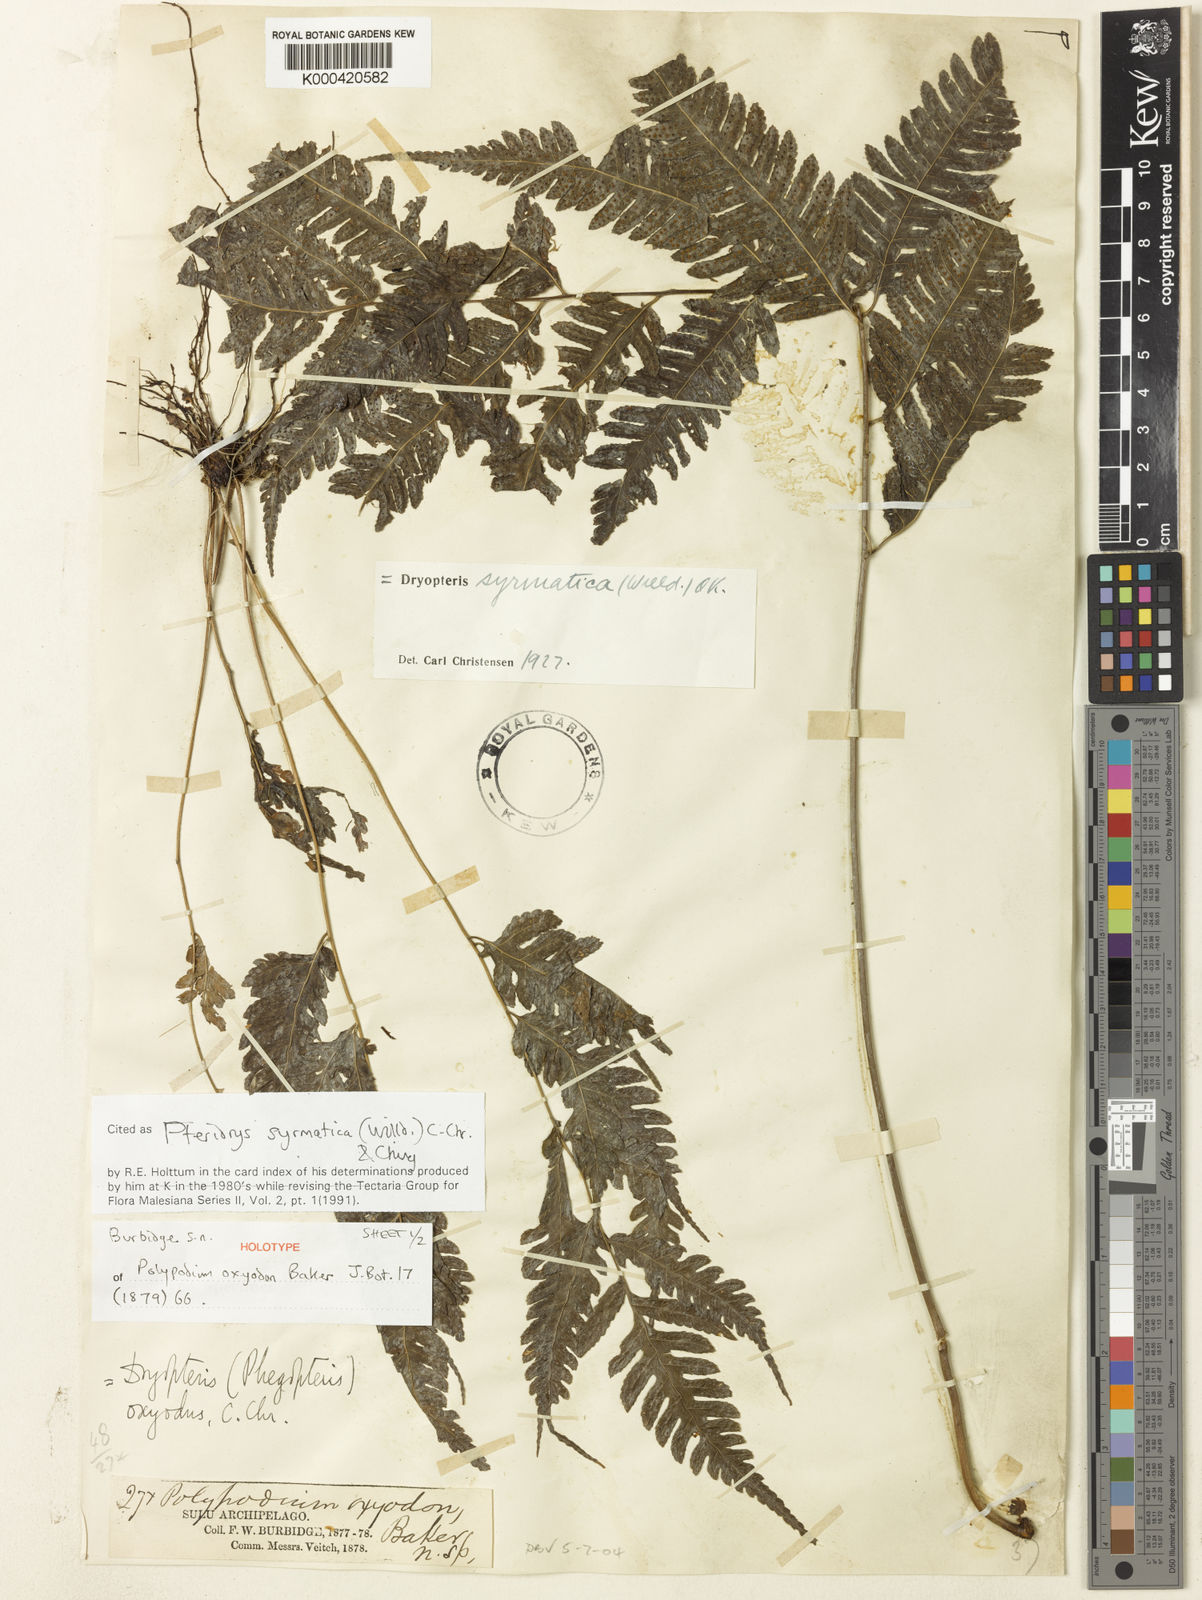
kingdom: Plantae
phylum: Tracheophyta
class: Polypodiopsida
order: Polypodiales
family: Tectariaceae
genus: Pteridrys
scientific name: Pteridrys syrmatica
